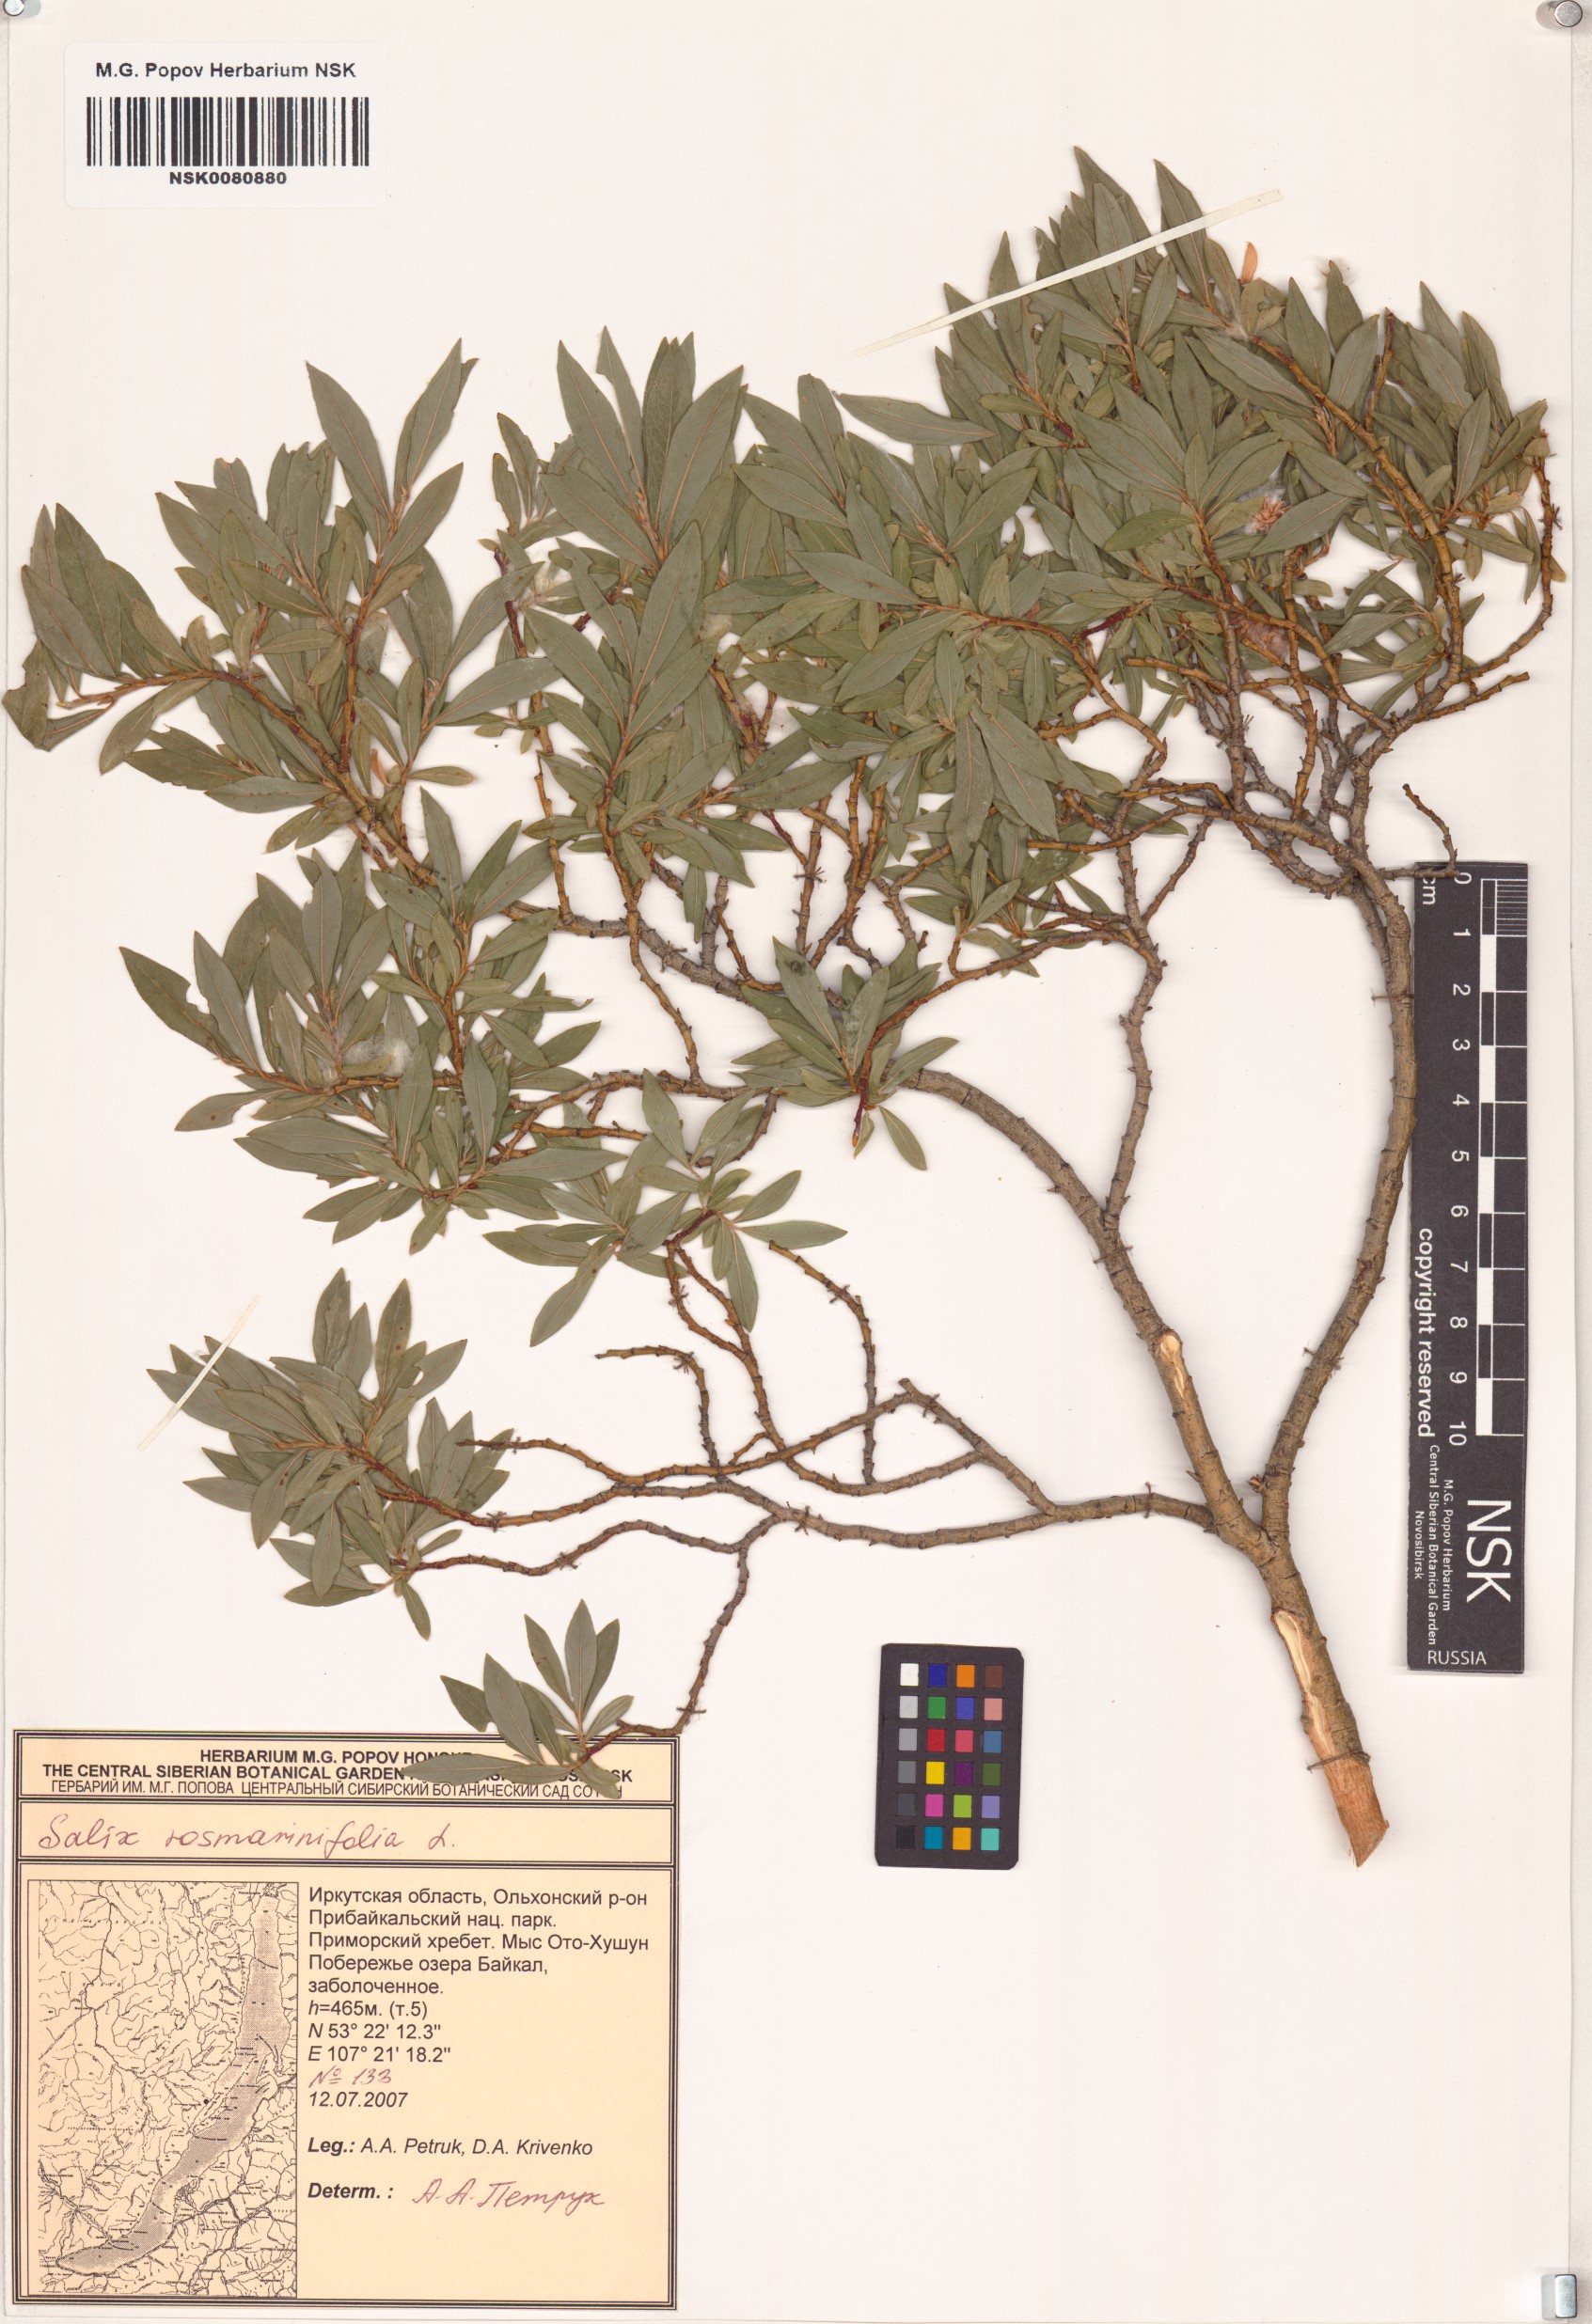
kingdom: Plantae
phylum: Tracheophyta
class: Magnoliopsida
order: Malpighiales
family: Salicaceae
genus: Salix
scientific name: Salix rosmarinifolia
